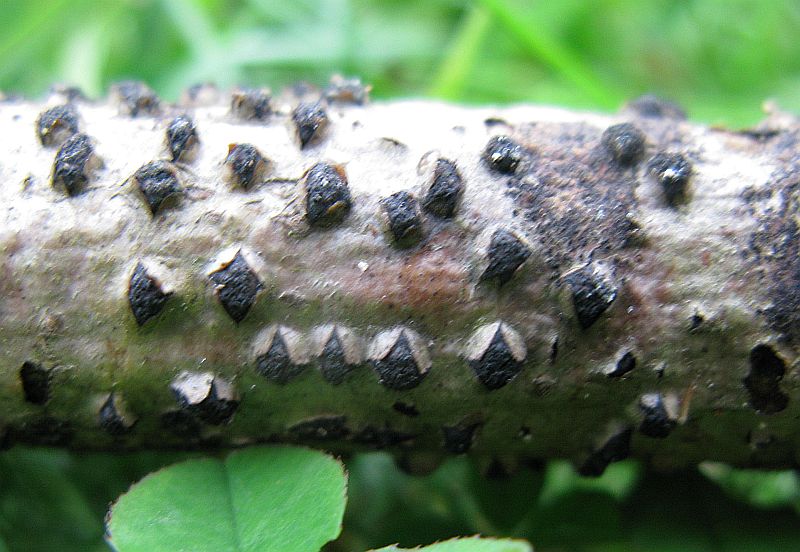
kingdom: Fungi
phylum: Ascomycota
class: Sordariomycetes
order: Xylariales
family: Diatrypaceae
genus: Diatrypella
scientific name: Diatrypella quercina
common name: ege-kulskorpe
